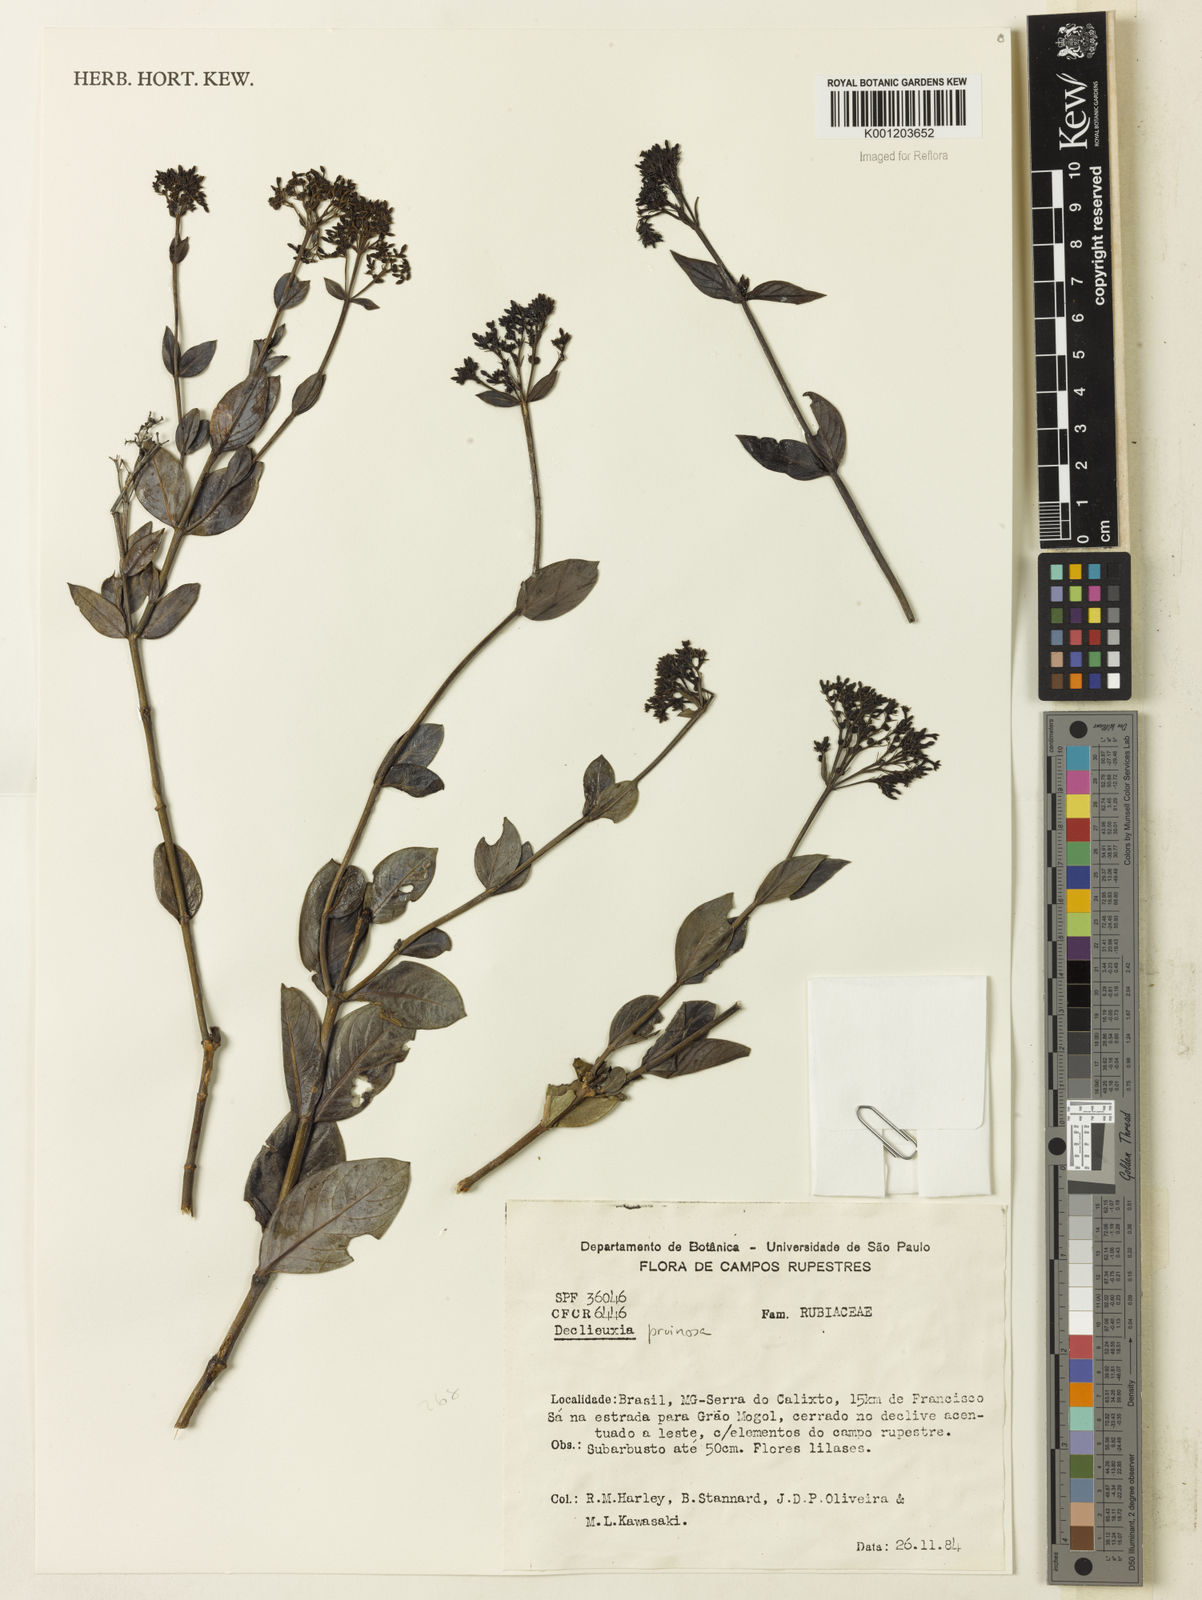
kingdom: Plantae
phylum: Tracheophyta
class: Magnoliopsida
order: Gentianales
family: Rubiaceae
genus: Declieuxia
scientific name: Declieuxia pruinosa
